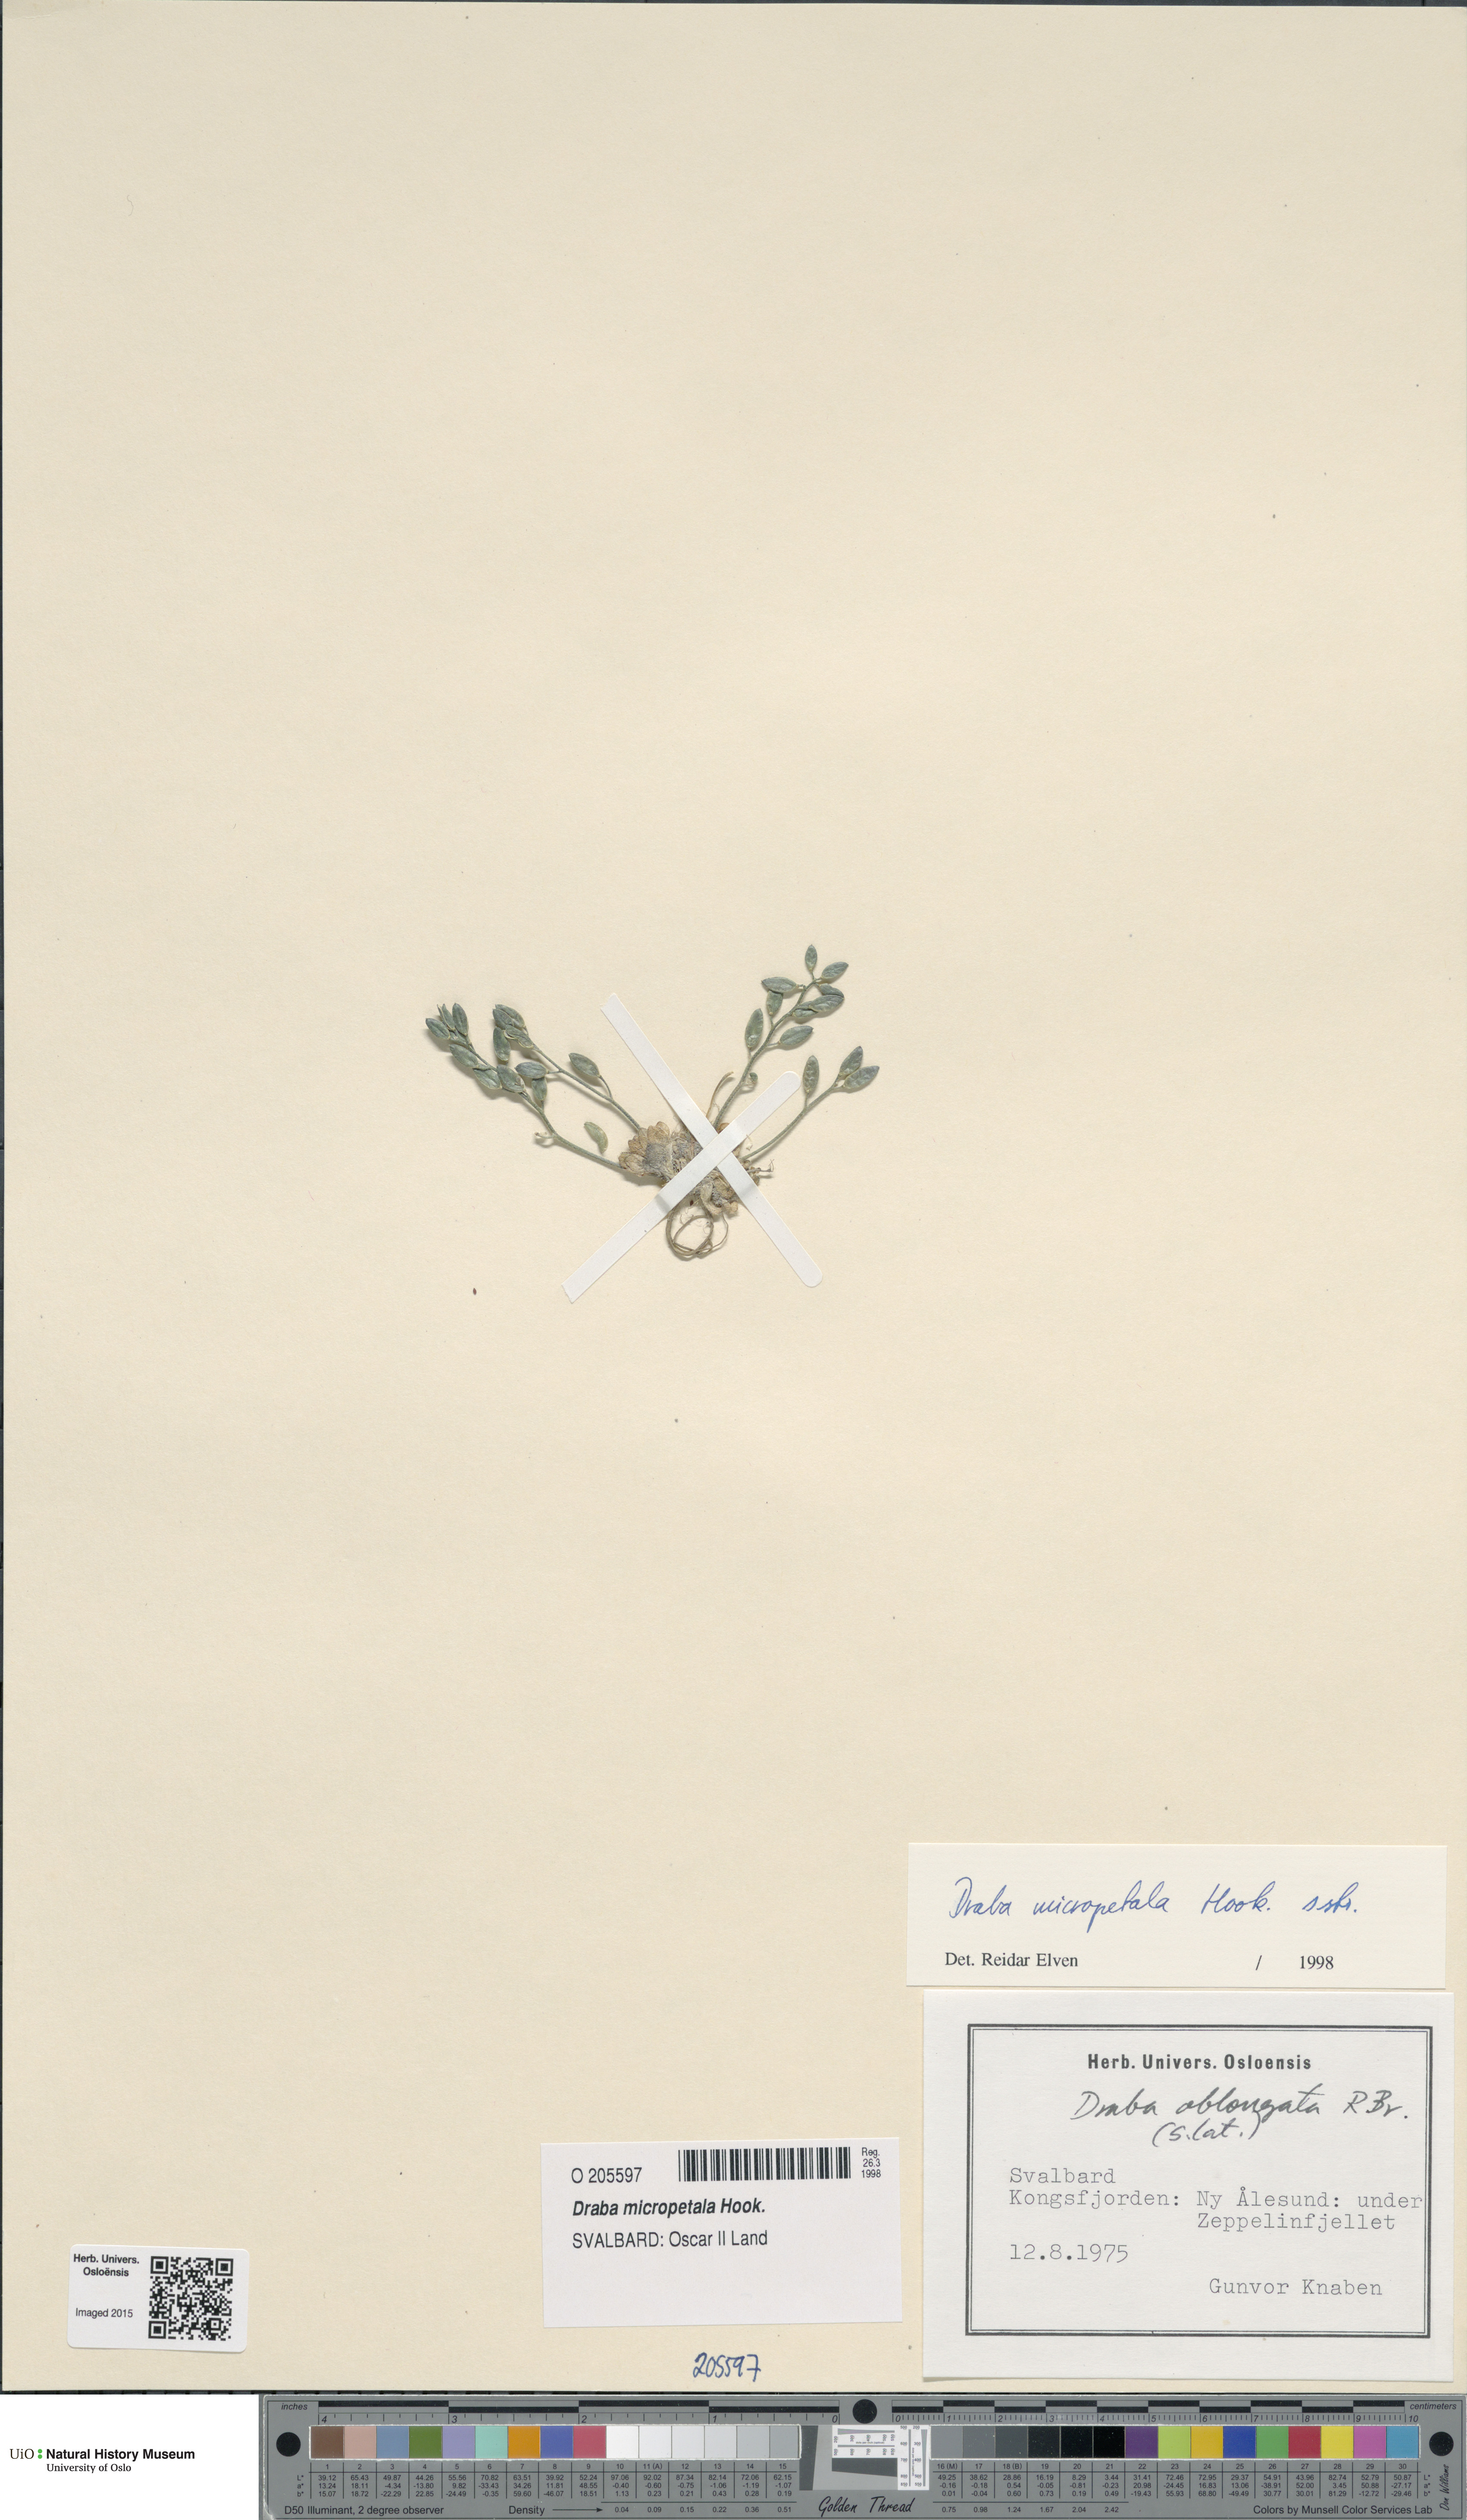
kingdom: Plantae
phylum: Tracheophyta
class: Magnoliopsida
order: Brassicales
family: Brassicaceae
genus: Draba
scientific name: Draba micropetala
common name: Small-flowered draba
